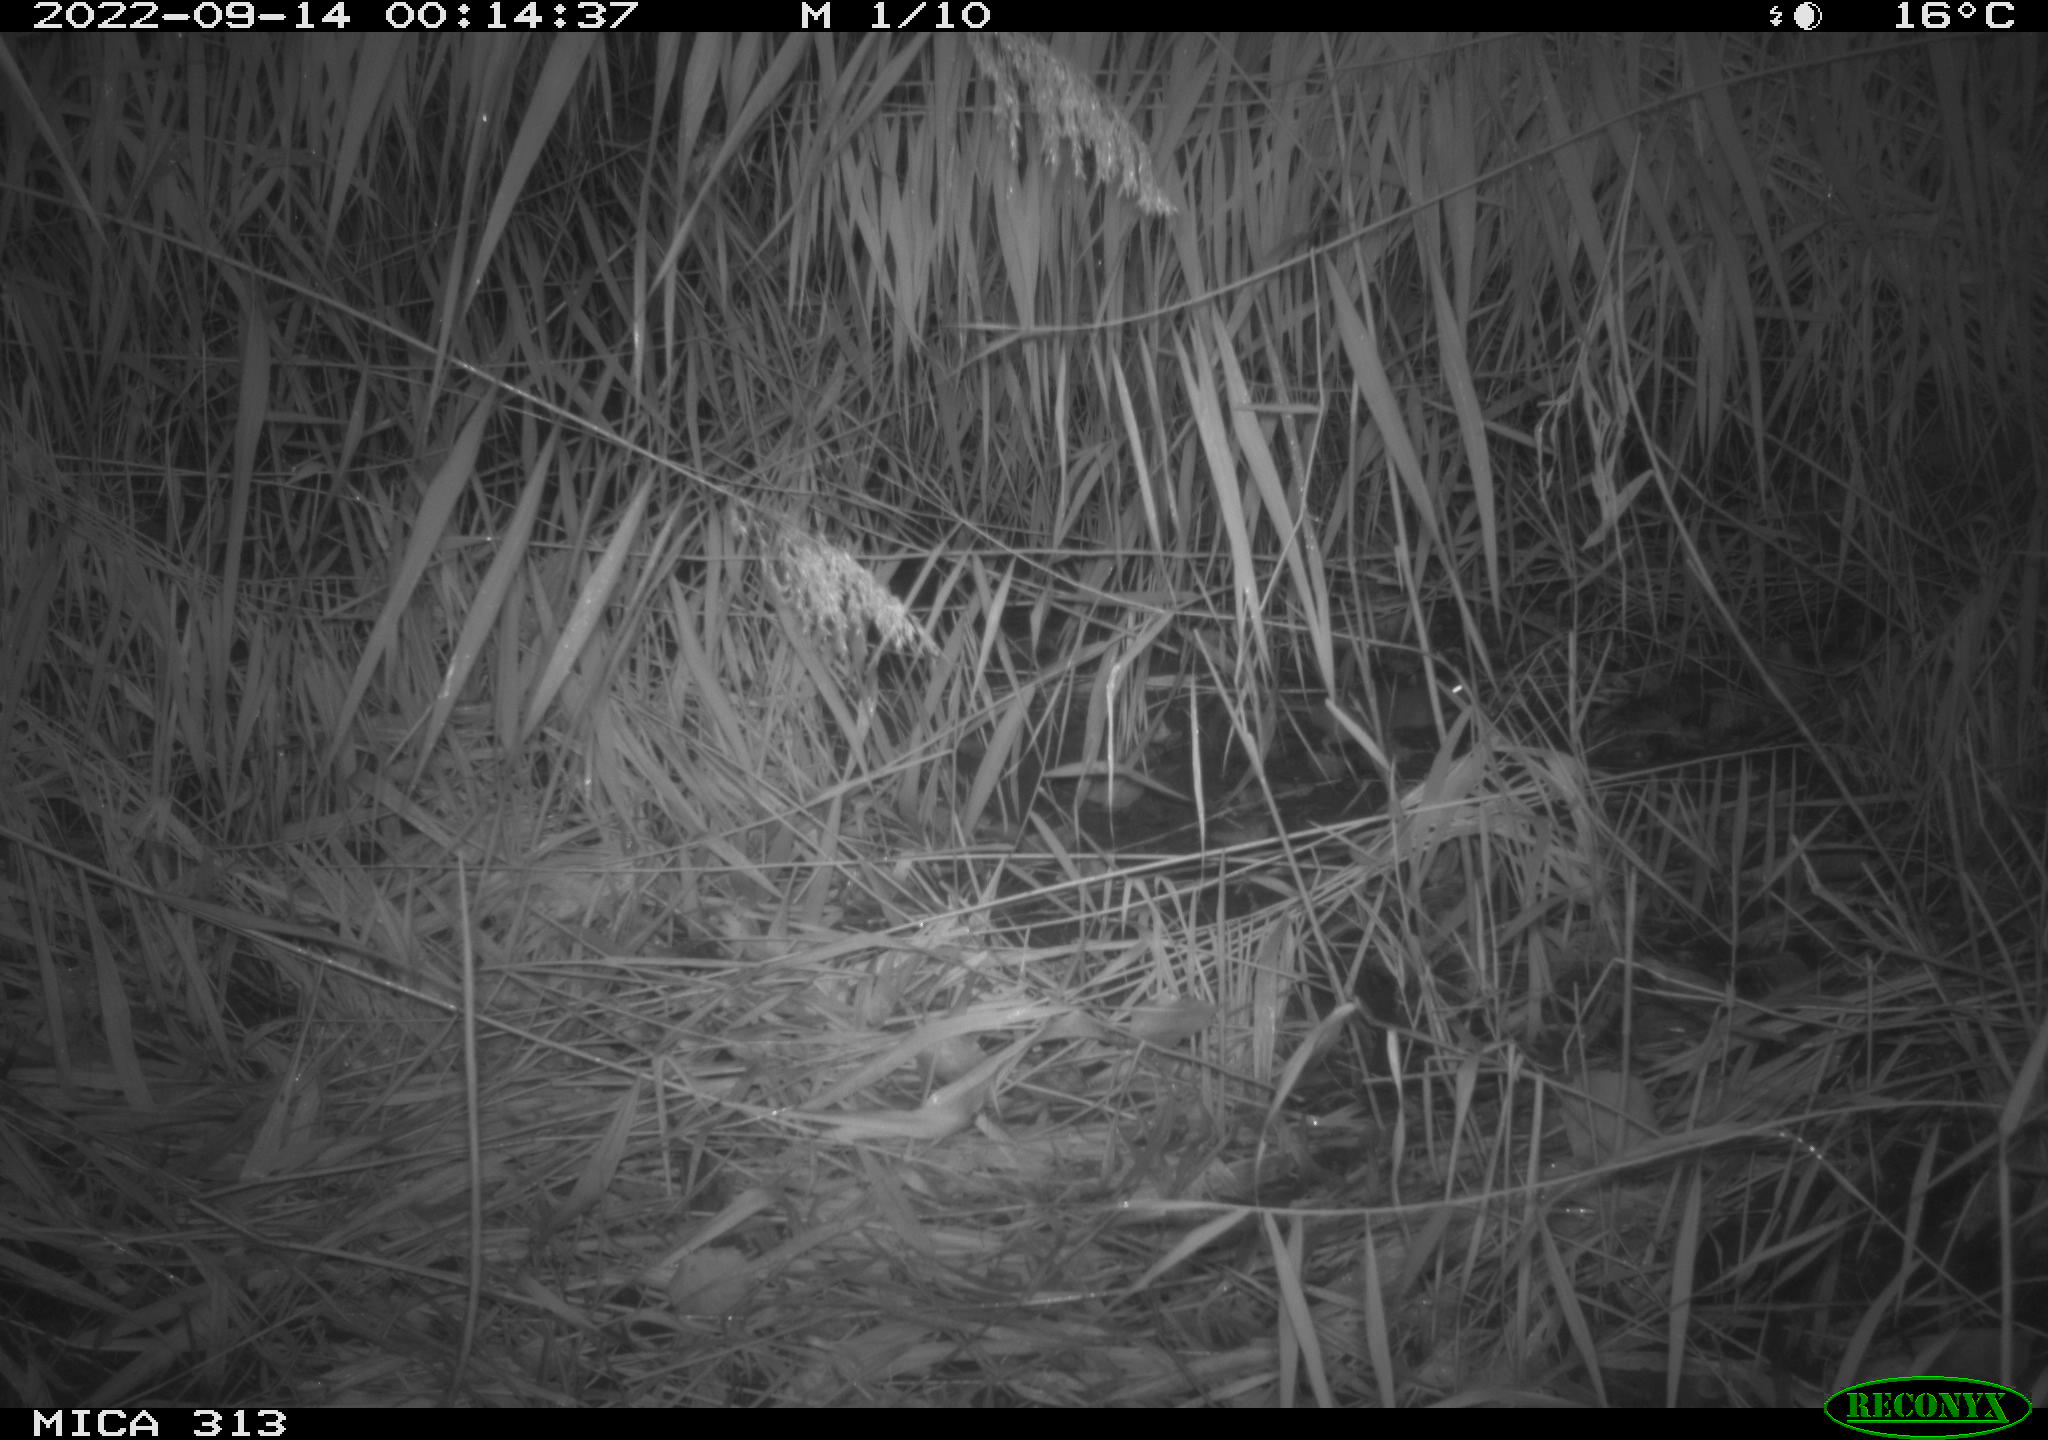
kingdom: Animalia
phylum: Chordata
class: Mammalia
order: Rodentia
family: Muridae
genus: Rattus
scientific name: Rattus norvegicus
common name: Brown rat
